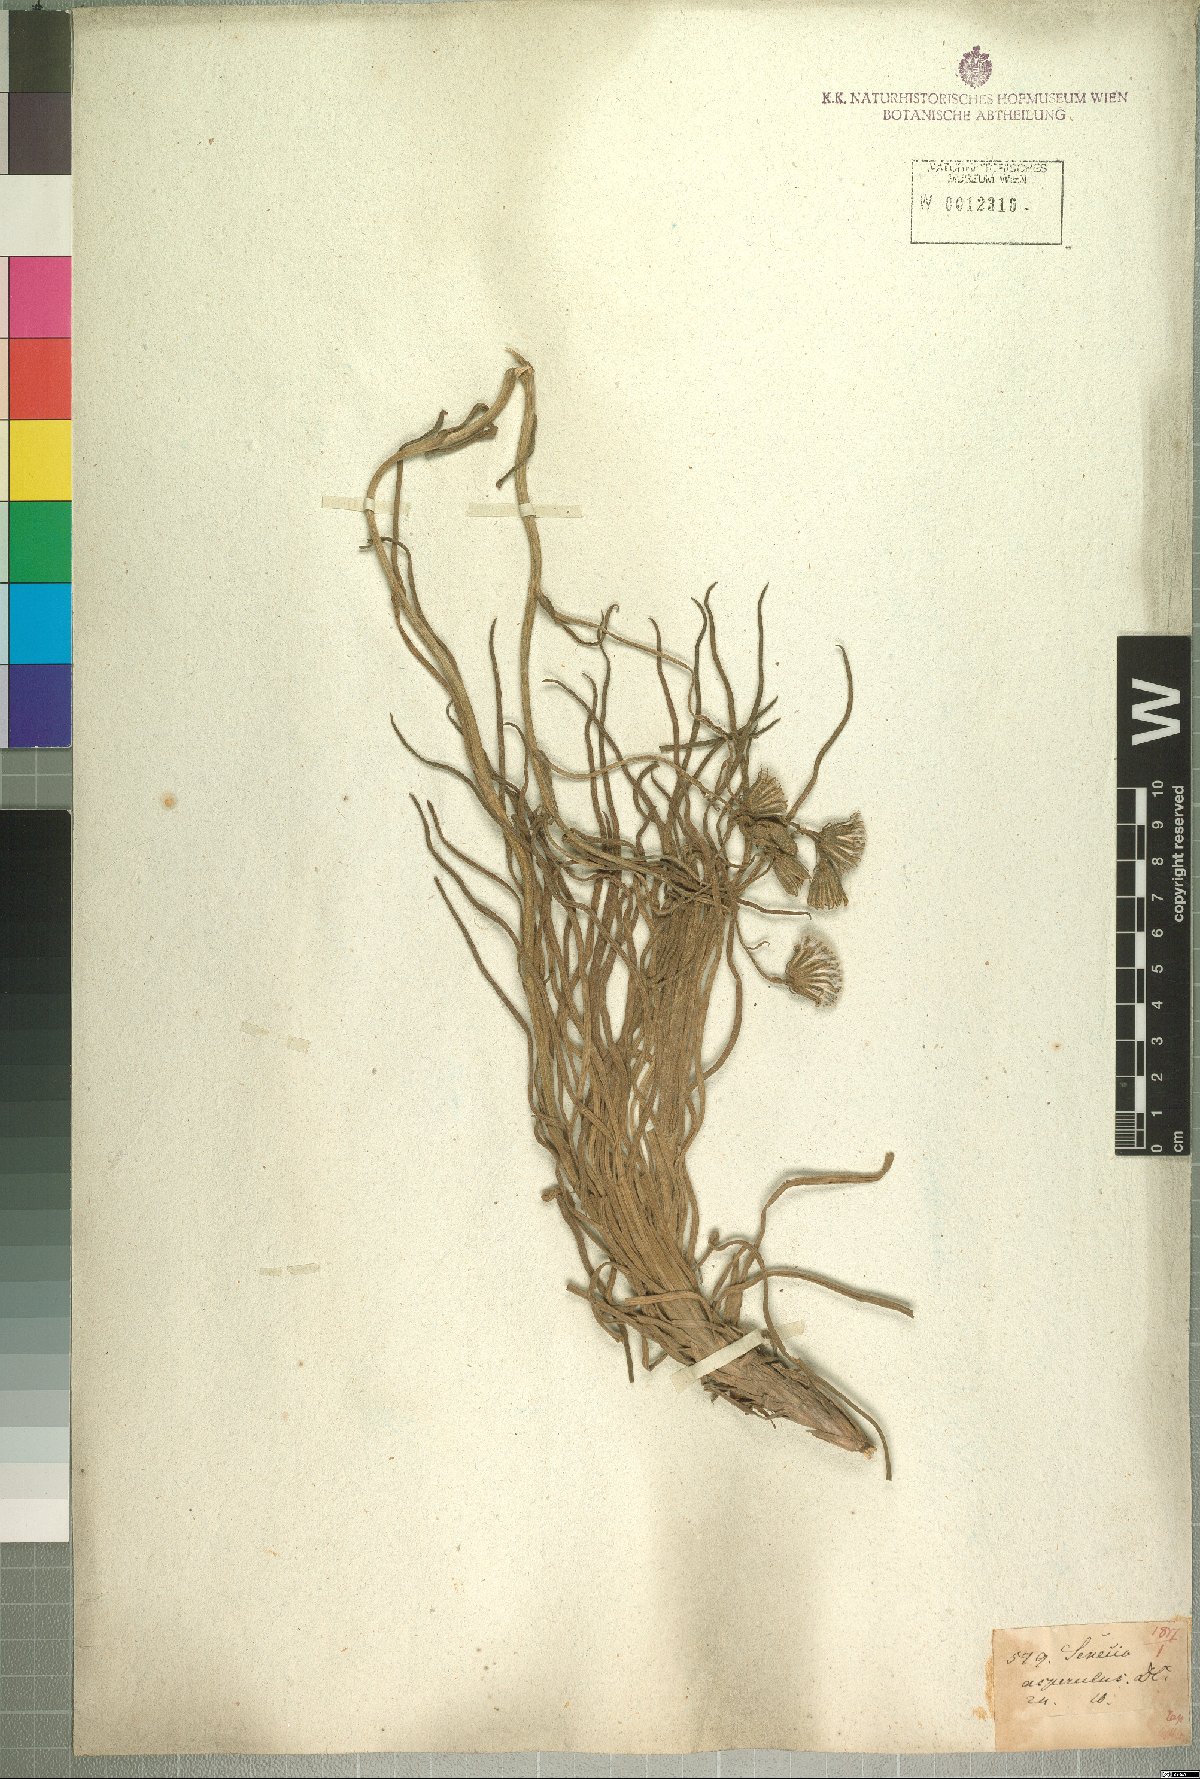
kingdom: Plantae
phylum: Tracheophyta
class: Magnoliopsida
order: Asterales
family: Asteraceae
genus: Senecio
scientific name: Senecio asperulus
